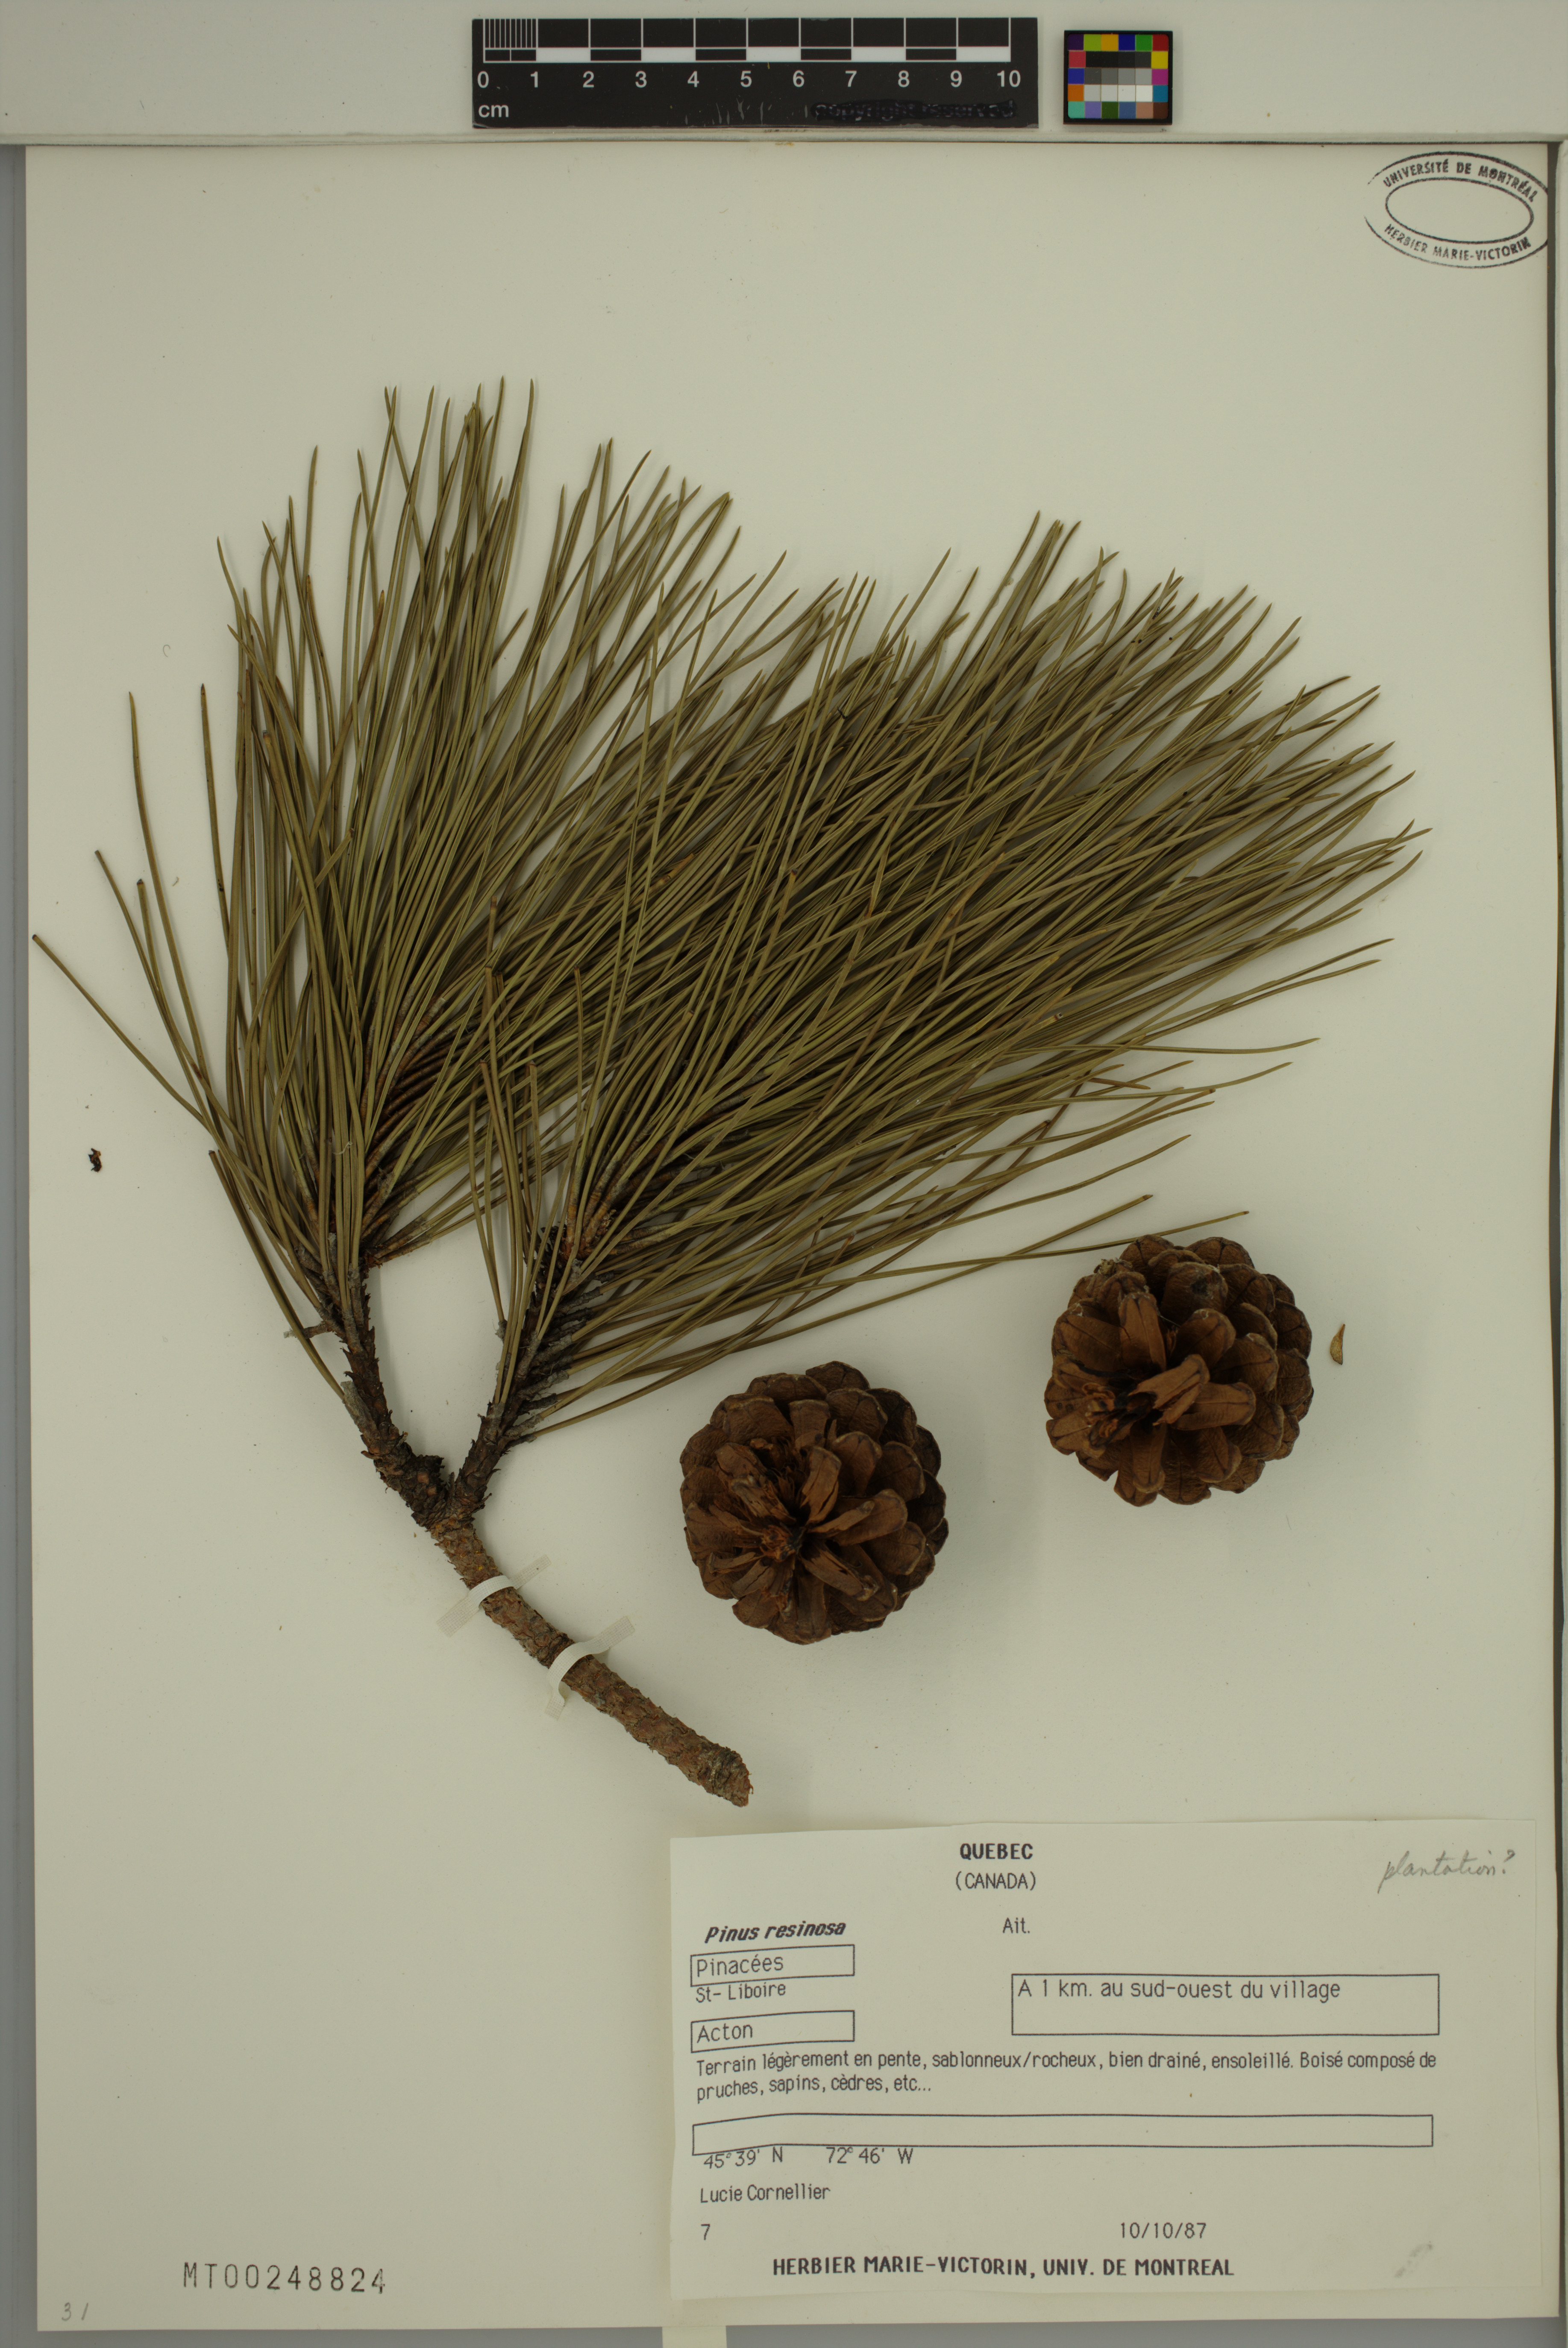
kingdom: Plantae
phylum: Tracheophyta
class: Pinopsida
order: Pinales
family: Pinaceae
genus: Pinus
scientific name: Pinus resinosa
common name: Norway pine
